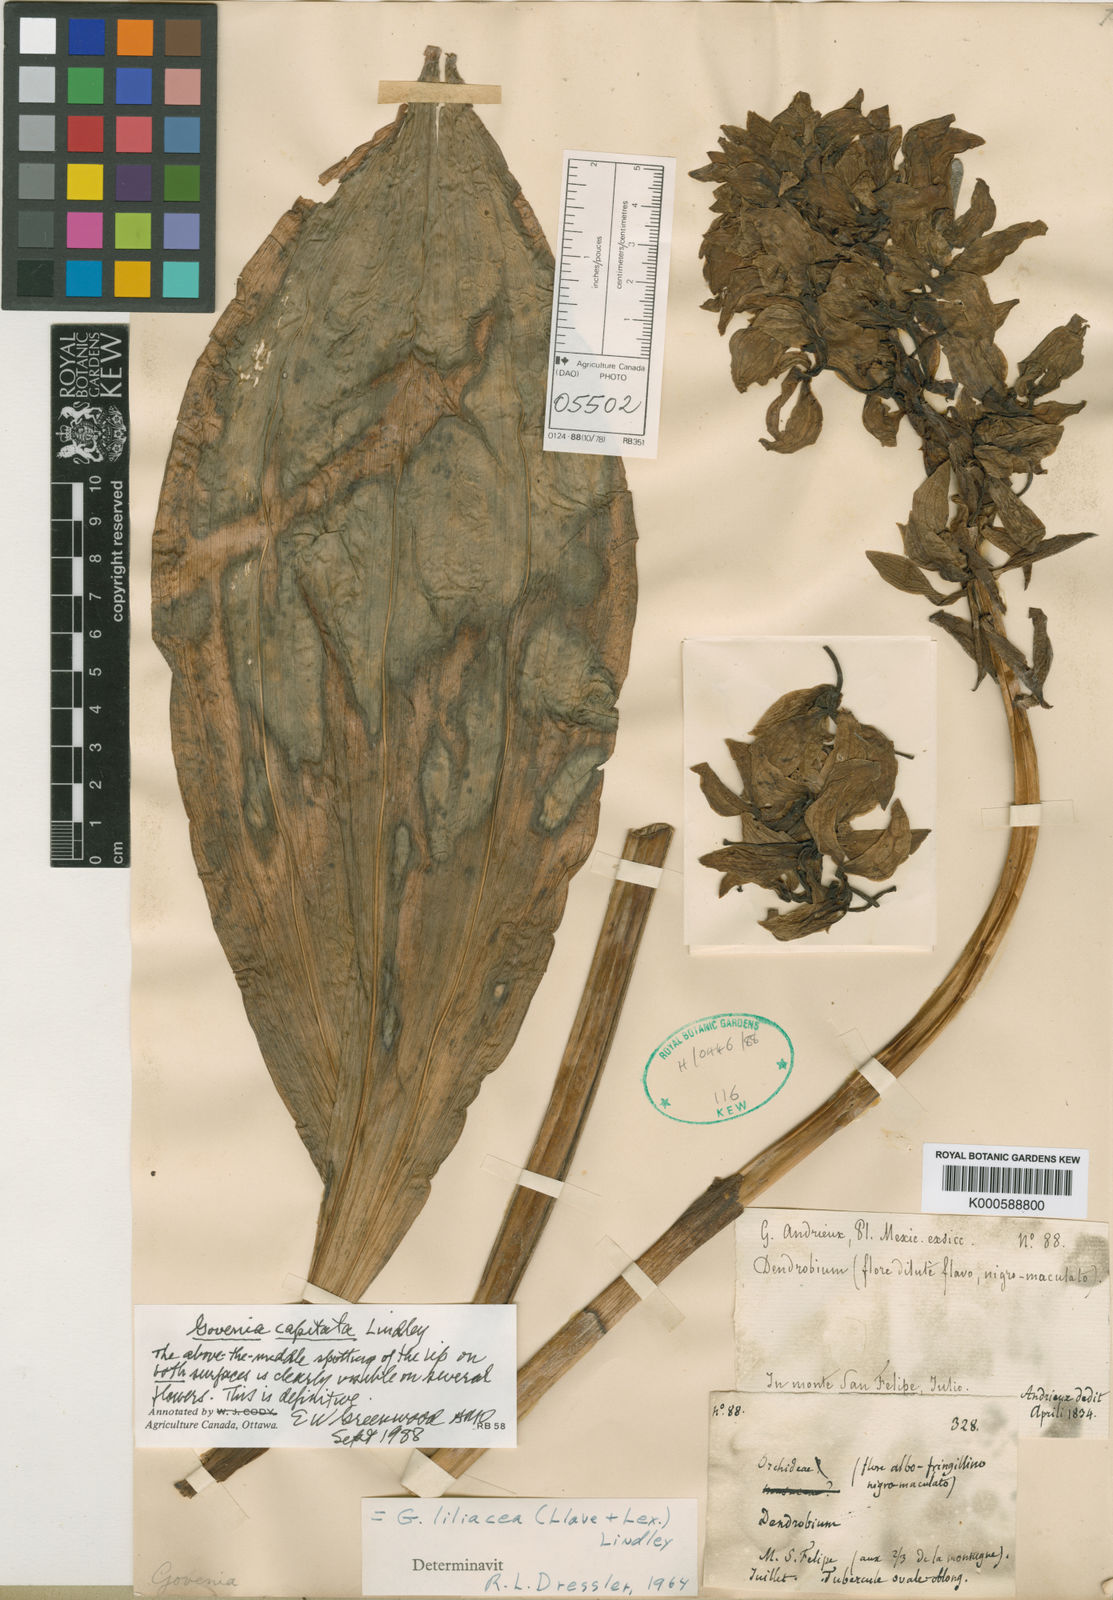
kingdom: Plantae
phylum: Tracheophyta
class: Liliopsida
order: Asparagales
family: Orchidaceae
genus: Govenia
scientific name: Govenia capitata
